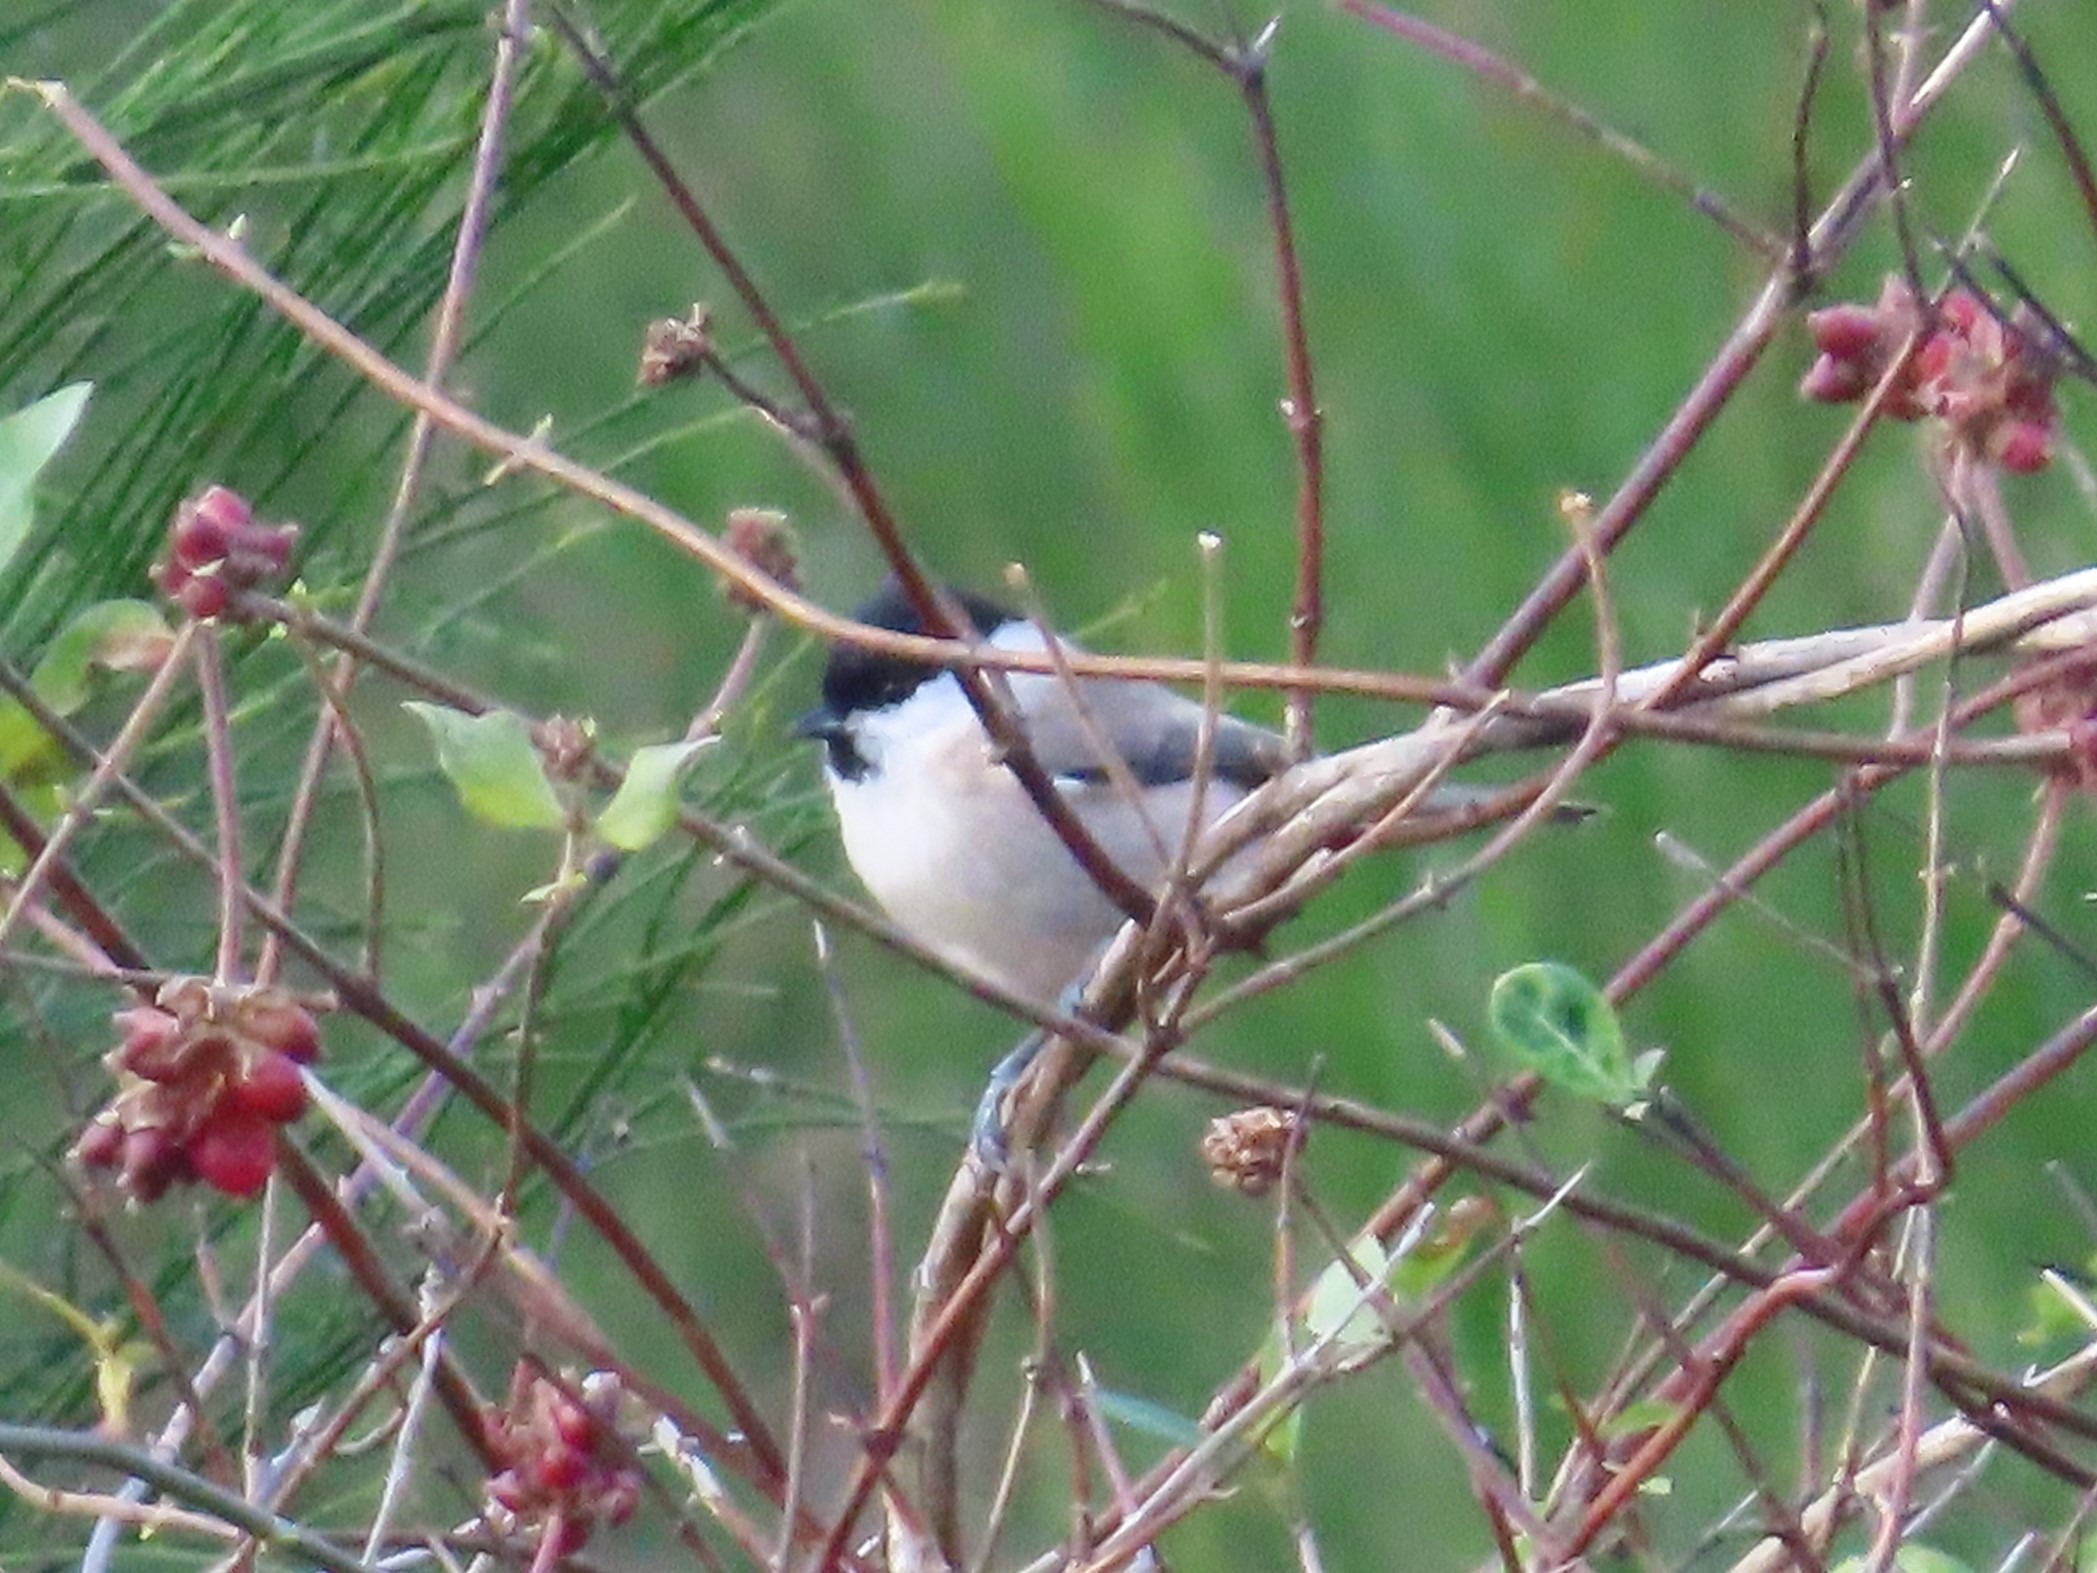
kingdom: Animalia
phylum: Chordata
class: Aves
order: Passeriformes
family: Paridae
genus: Poecile
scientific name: Poecile palustris
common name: Sumpmejse
